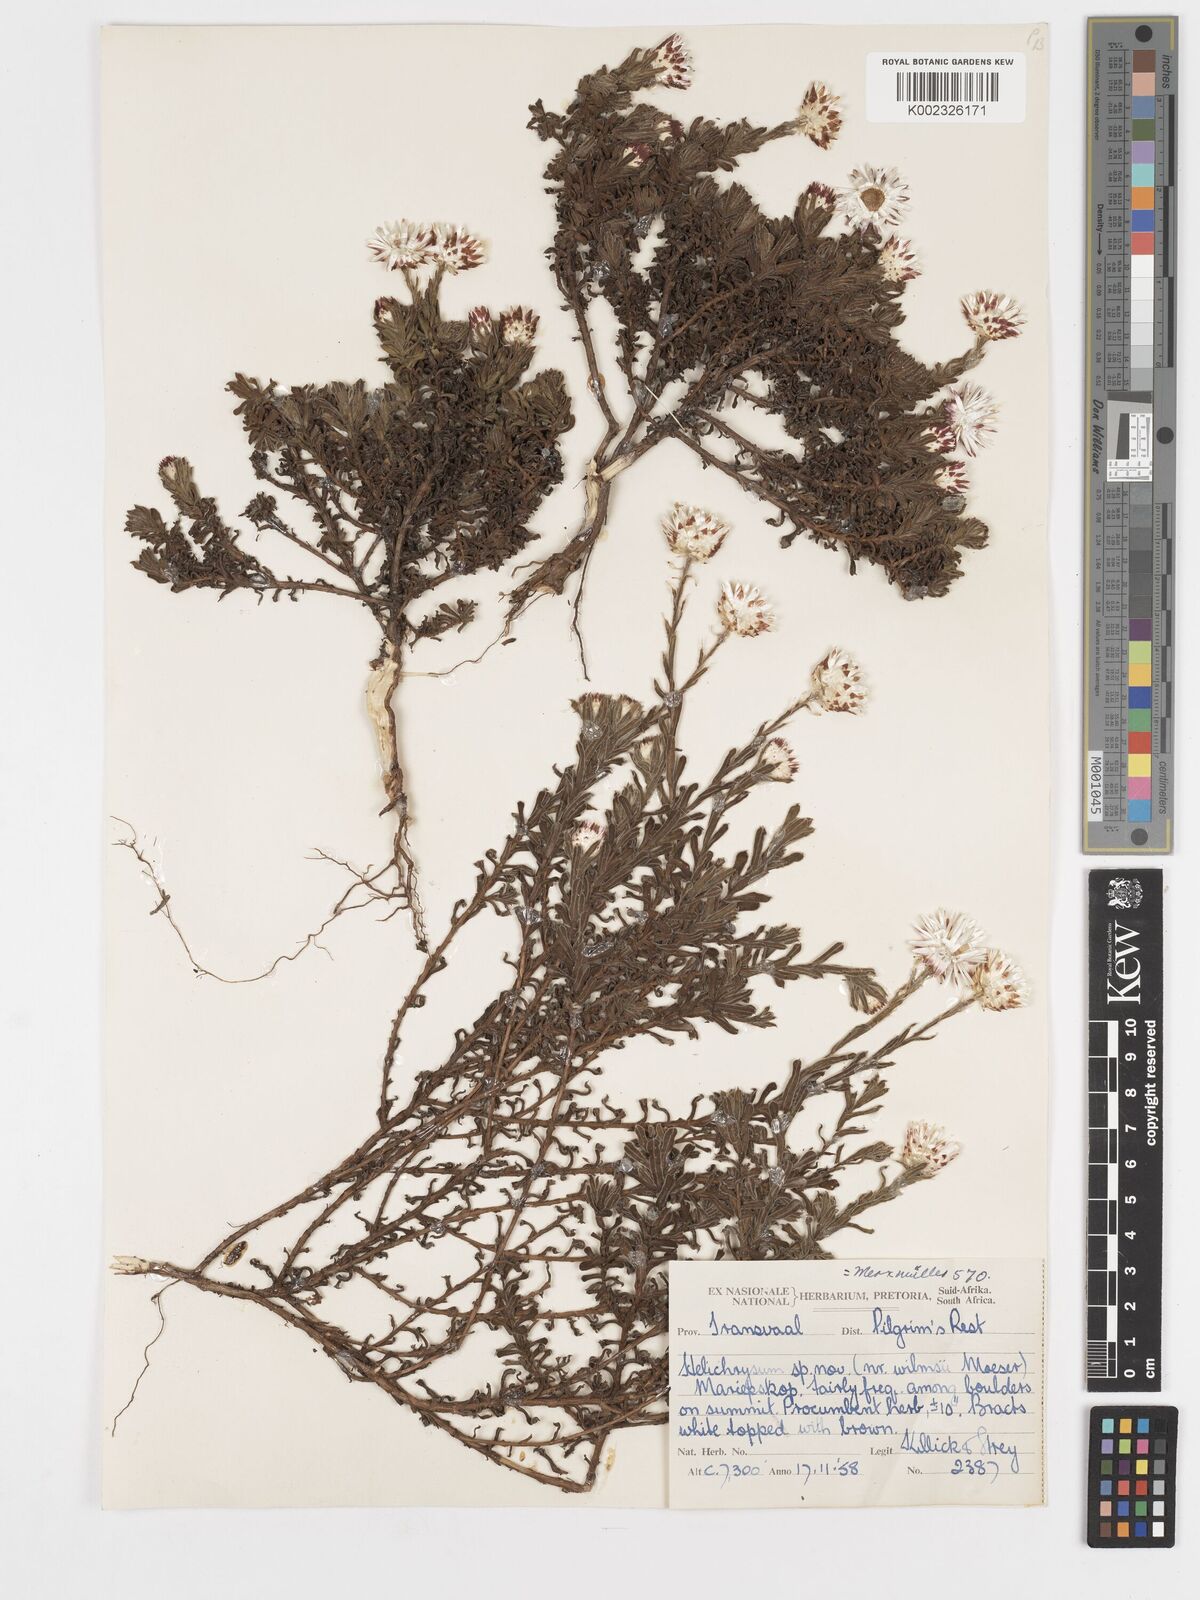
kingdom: Plantae
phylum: Tracheophyta
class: Magnoliopsida
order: Asterales
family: Asteraceae
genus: Helichrysum
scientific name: Helichrysum mariepscopicum
